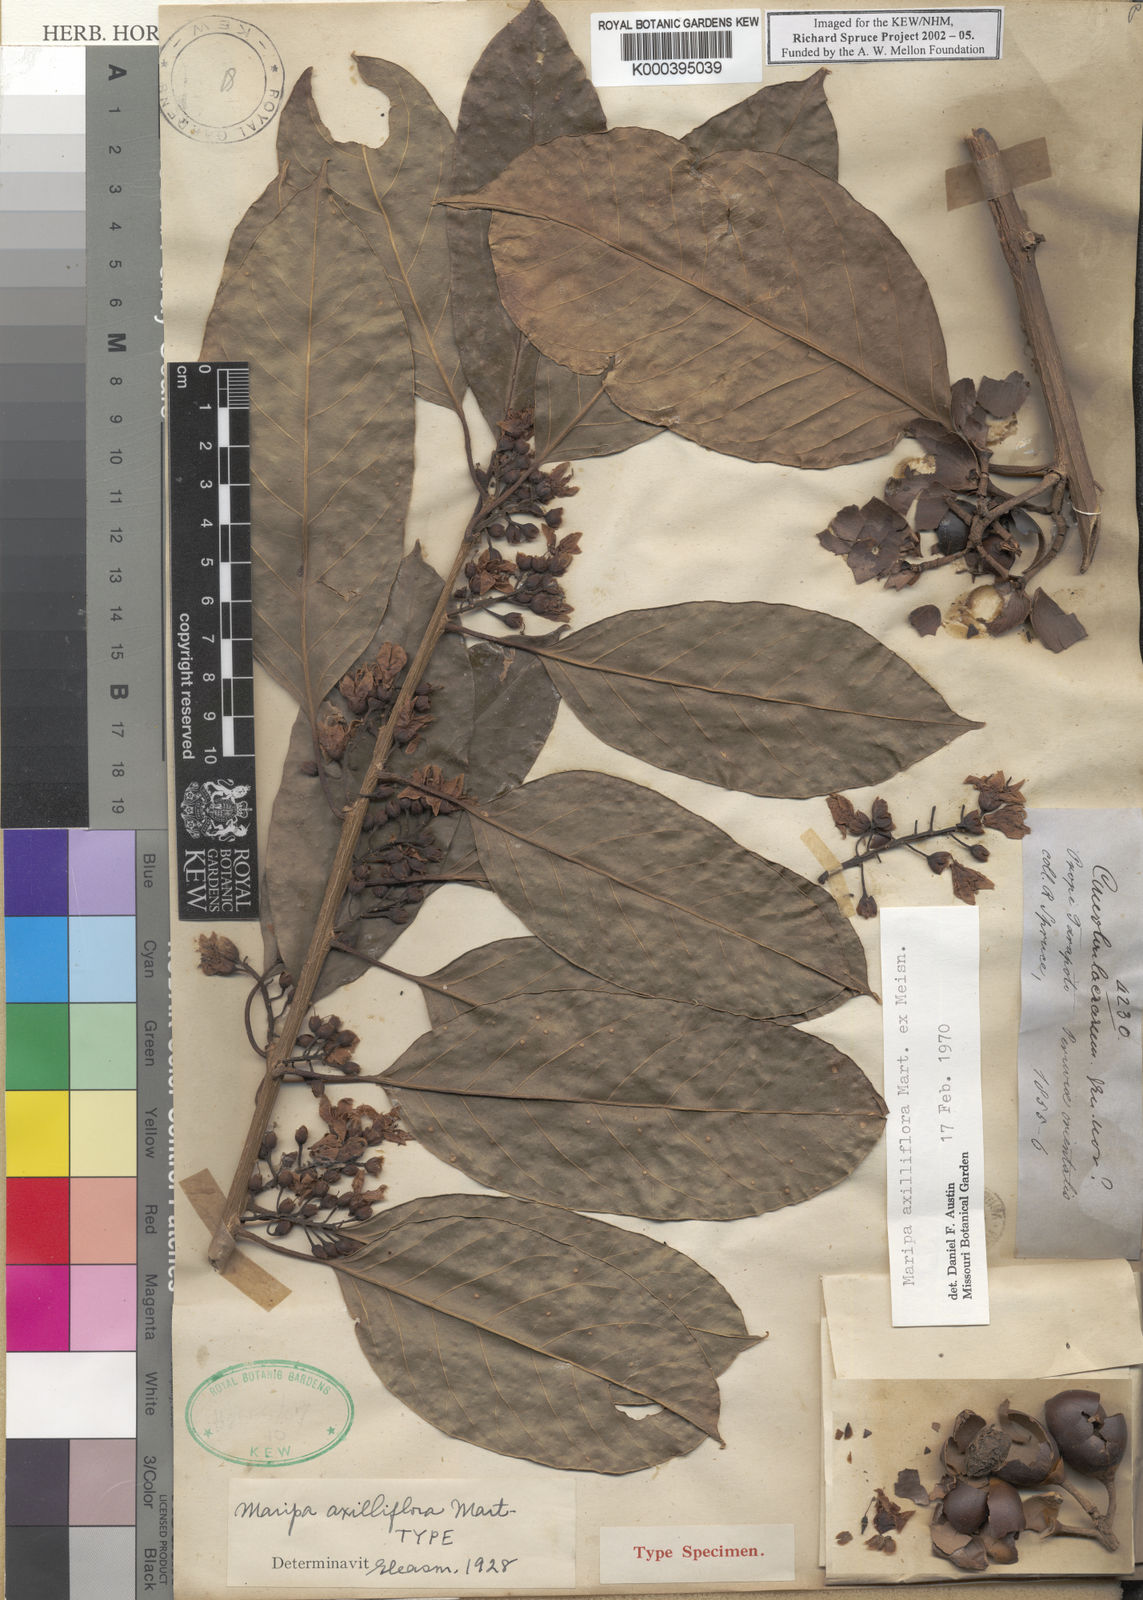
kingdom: Plantae
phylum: Tracheophyta
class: Magnoliopsida
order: Solanales
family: Convolvulaceae
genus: Maripa
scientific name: Maripa axilliflora
